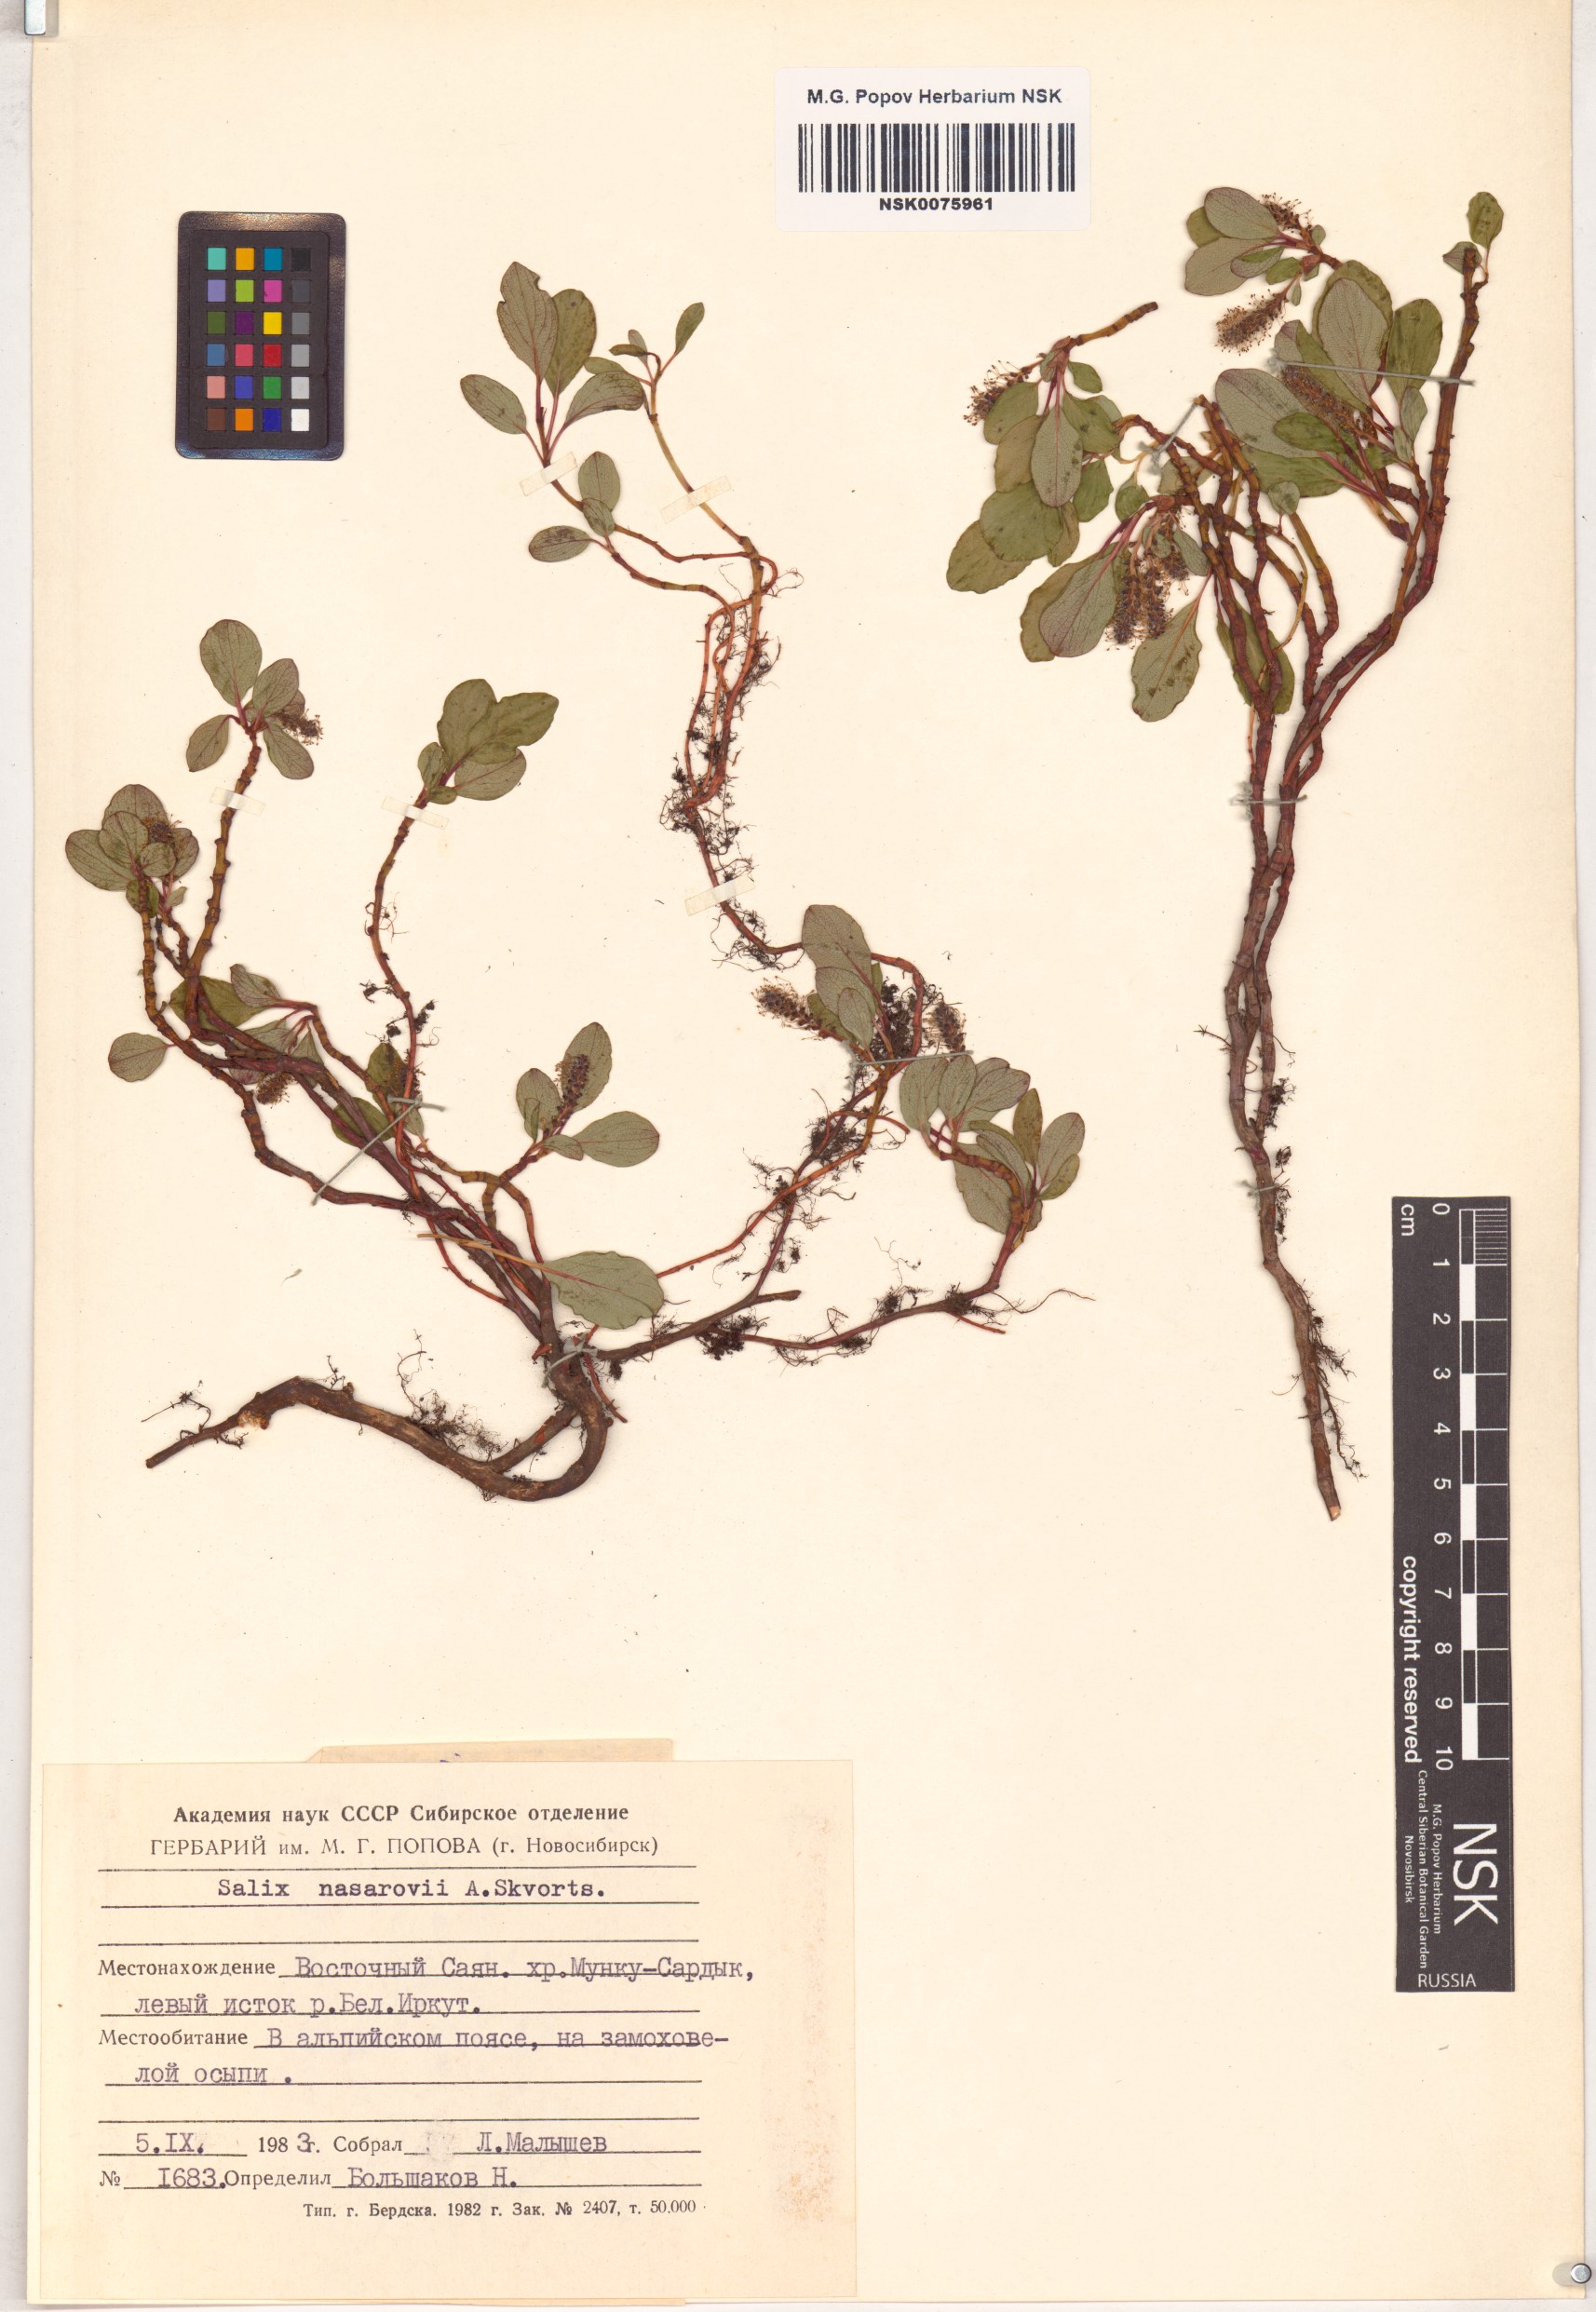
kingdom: Plantae
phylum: Tracheophyta
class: Magnoliopsida
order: Malpighiales
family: Salicaceae
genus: Salix
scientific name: Salix nasarovii
